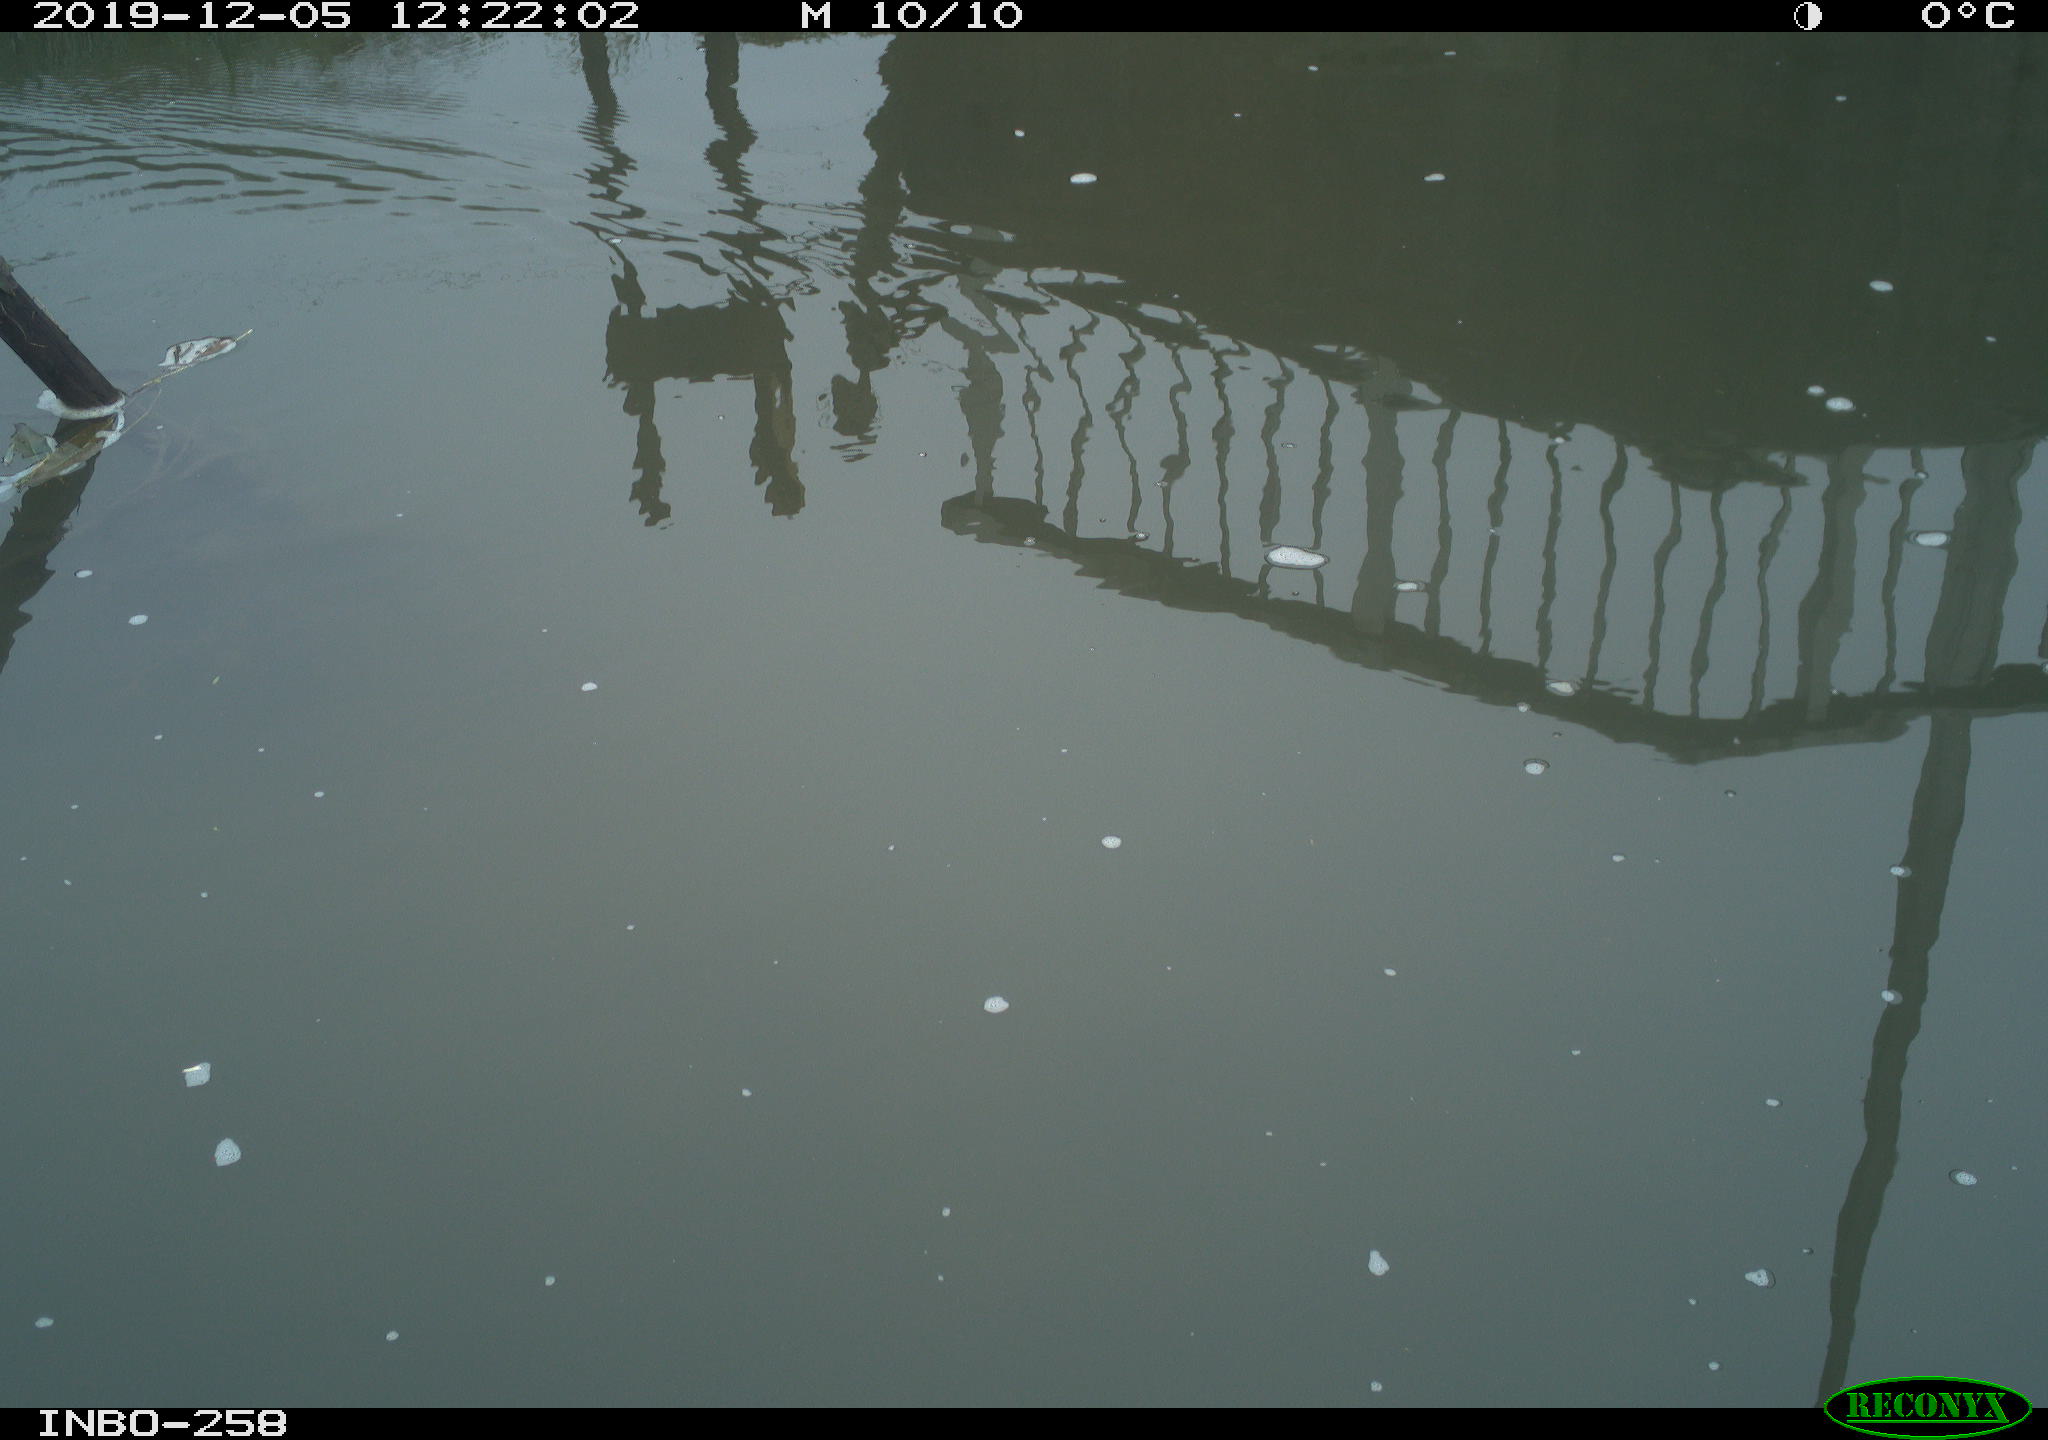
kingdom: Animalia
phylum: Chordata
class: Aves
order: Gruiformes
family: Rallidae
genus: Gallinula
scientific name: Gallinula chloropus
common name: Common moorhen
